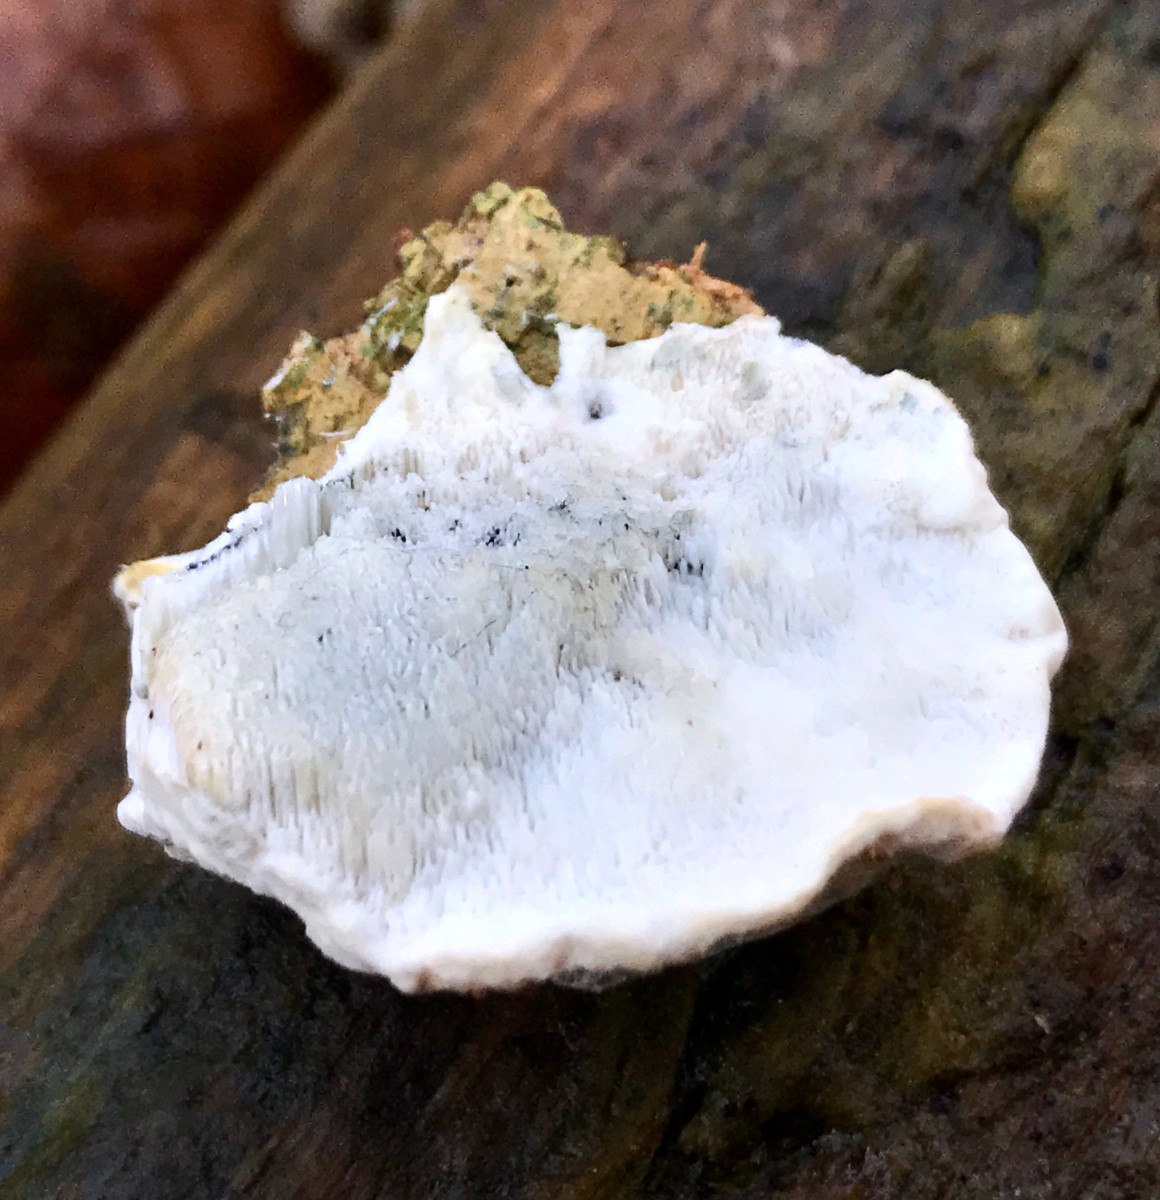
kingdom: Fungi
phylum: Basidiomycota
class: Agaricomycetes
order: Polyporales
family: Polyporaceae
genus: Cyanosporus
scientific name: Cyanosporus alni
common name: blegblå kødporesvamp
